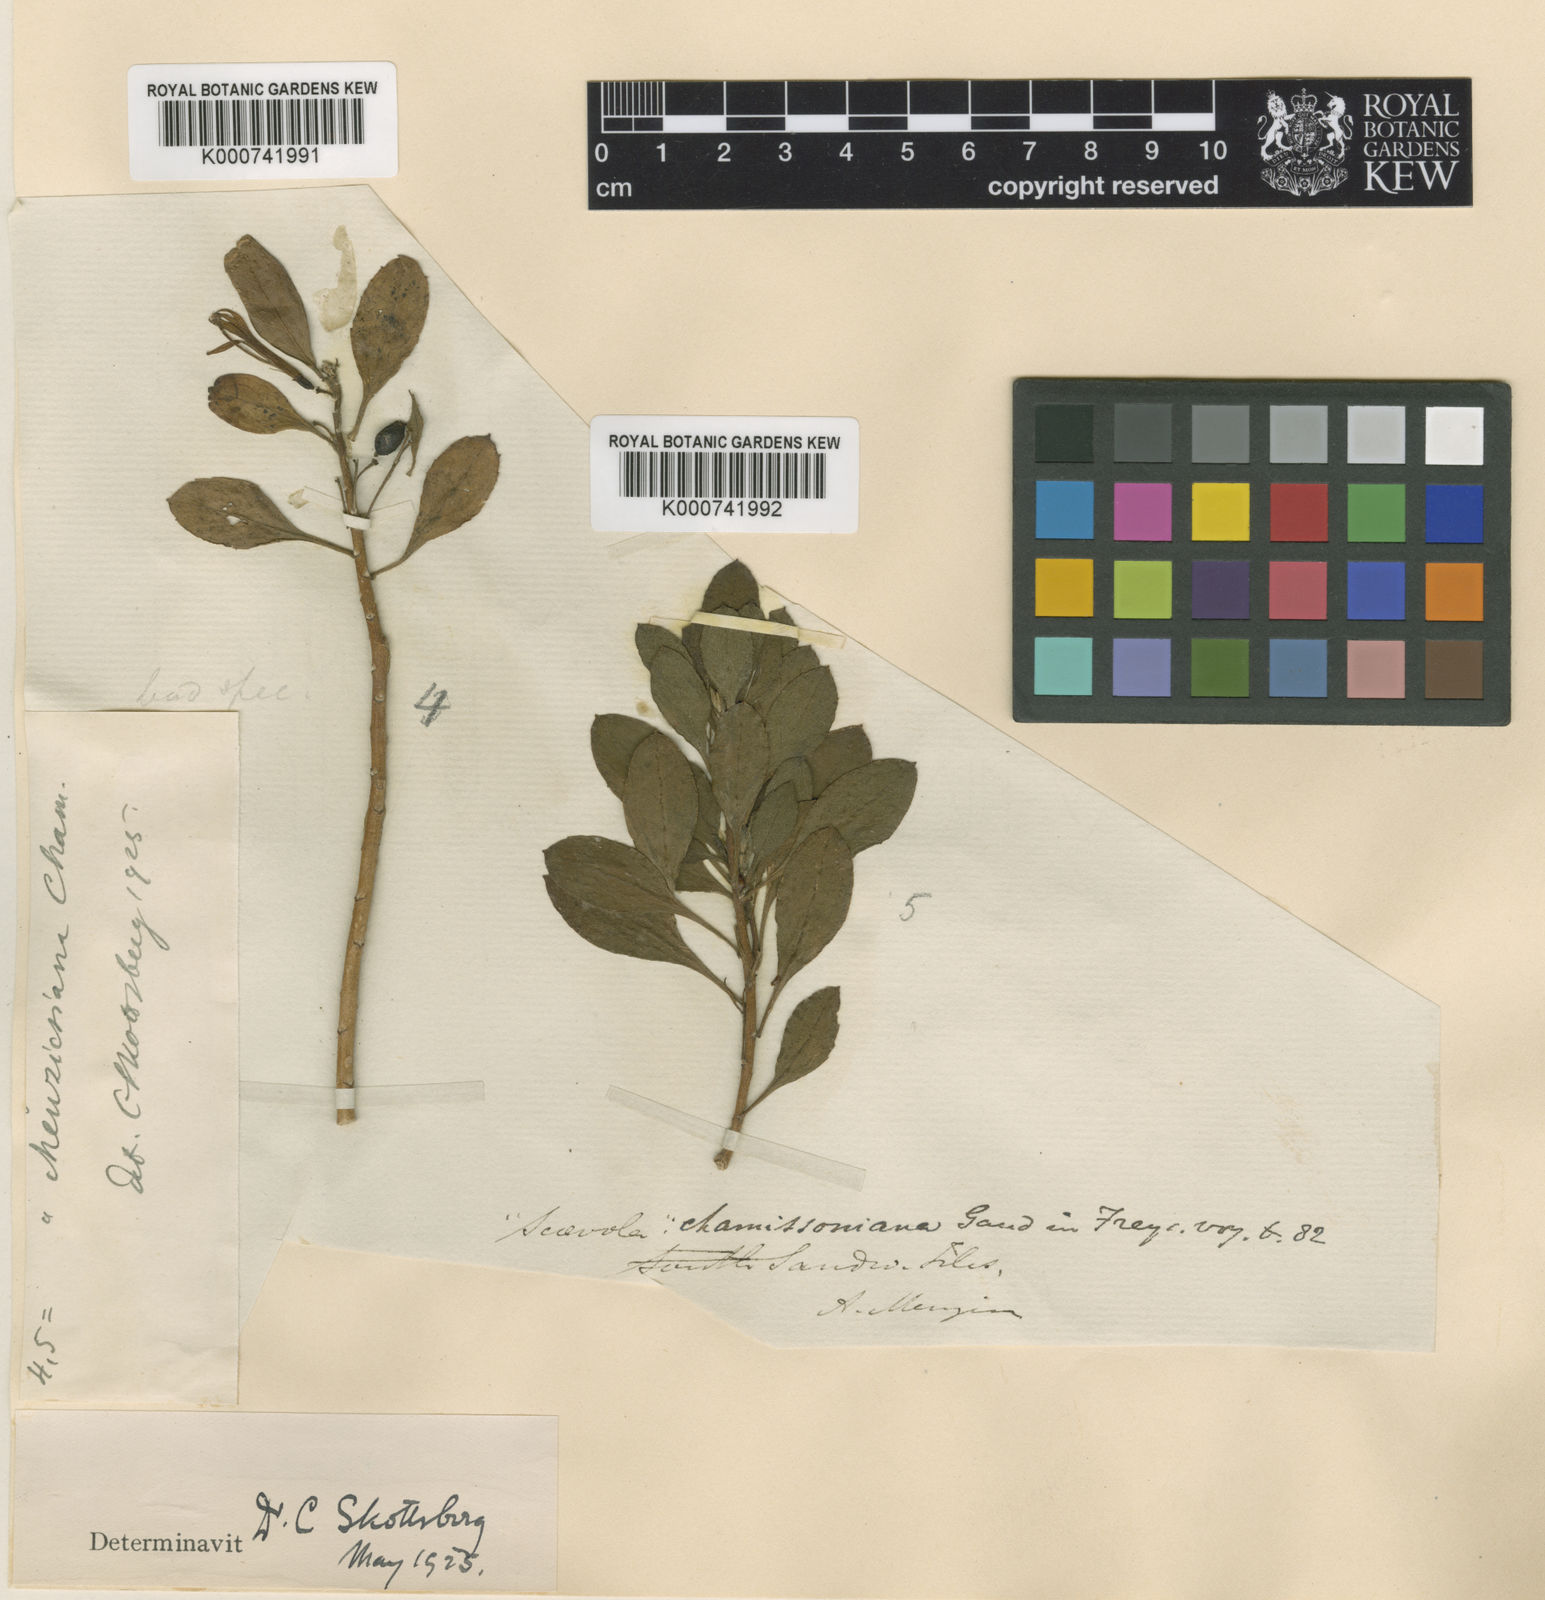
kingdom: Plantae
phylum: Tracheophyta
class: Magnoliopsida
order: Asterales
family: Goodeniaceae
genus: Scaevola
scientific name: Scaevola gaudichaudii
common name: Mountain naupaka
